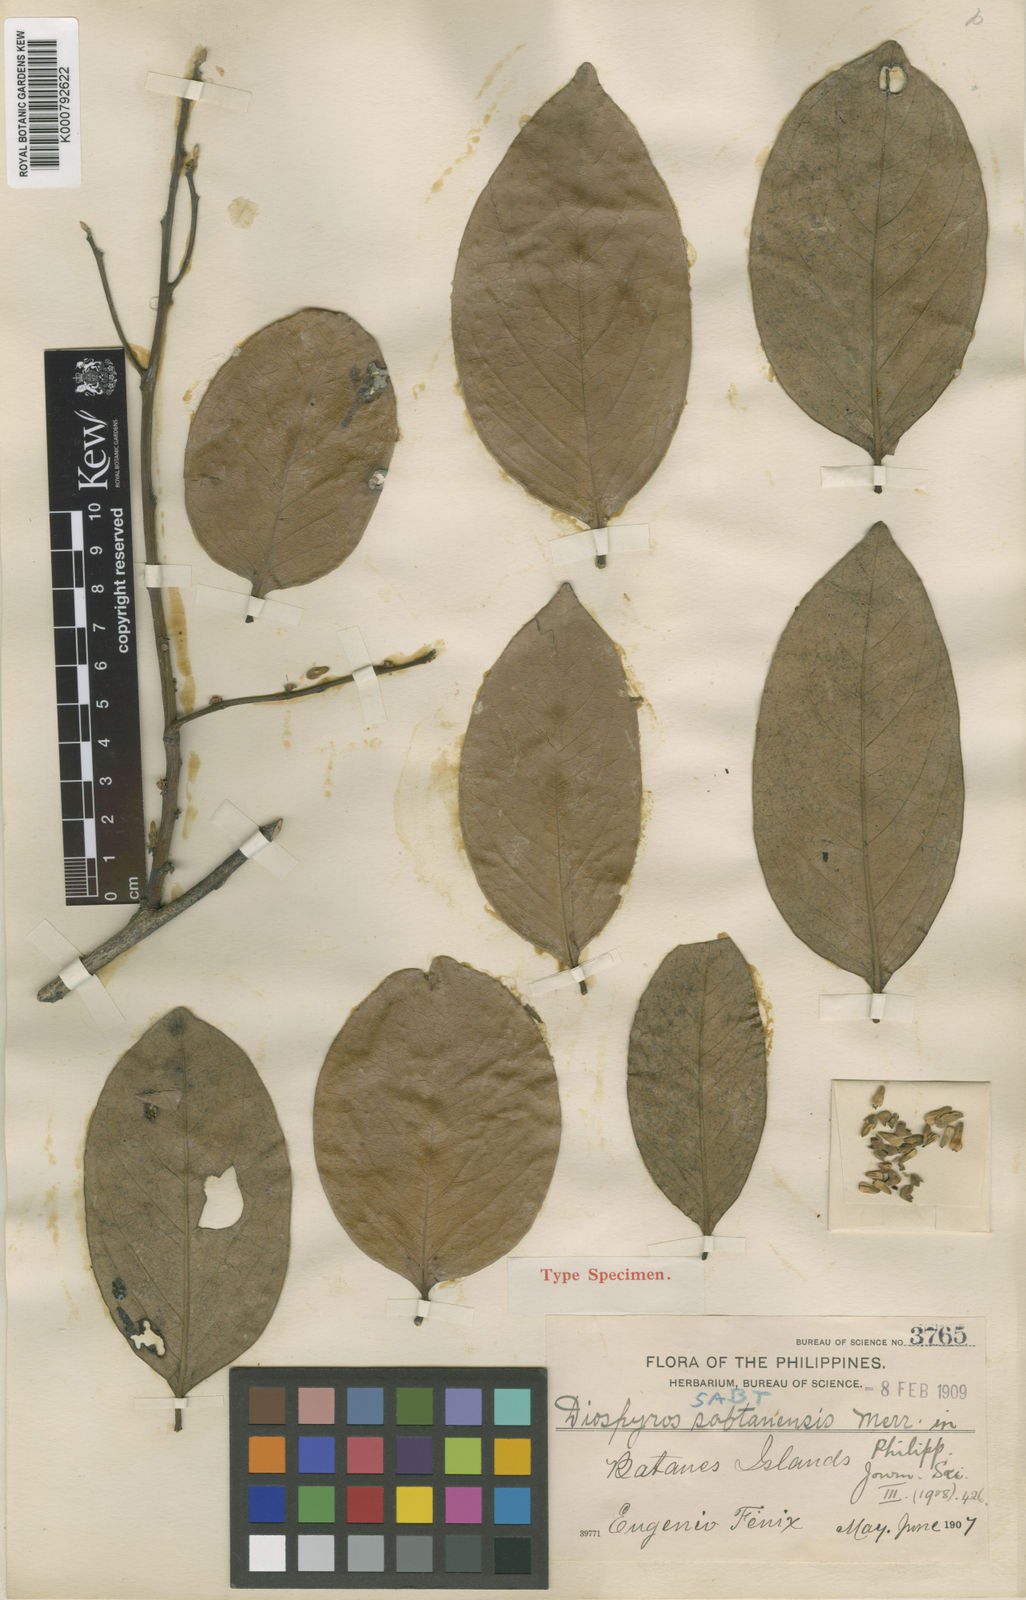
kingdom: Plantae
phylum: Tracheophyta
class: Magnoliopsida
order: Ericales
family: Ebenaceae
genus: Diospyros
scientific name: Diospyros lanceifolia
